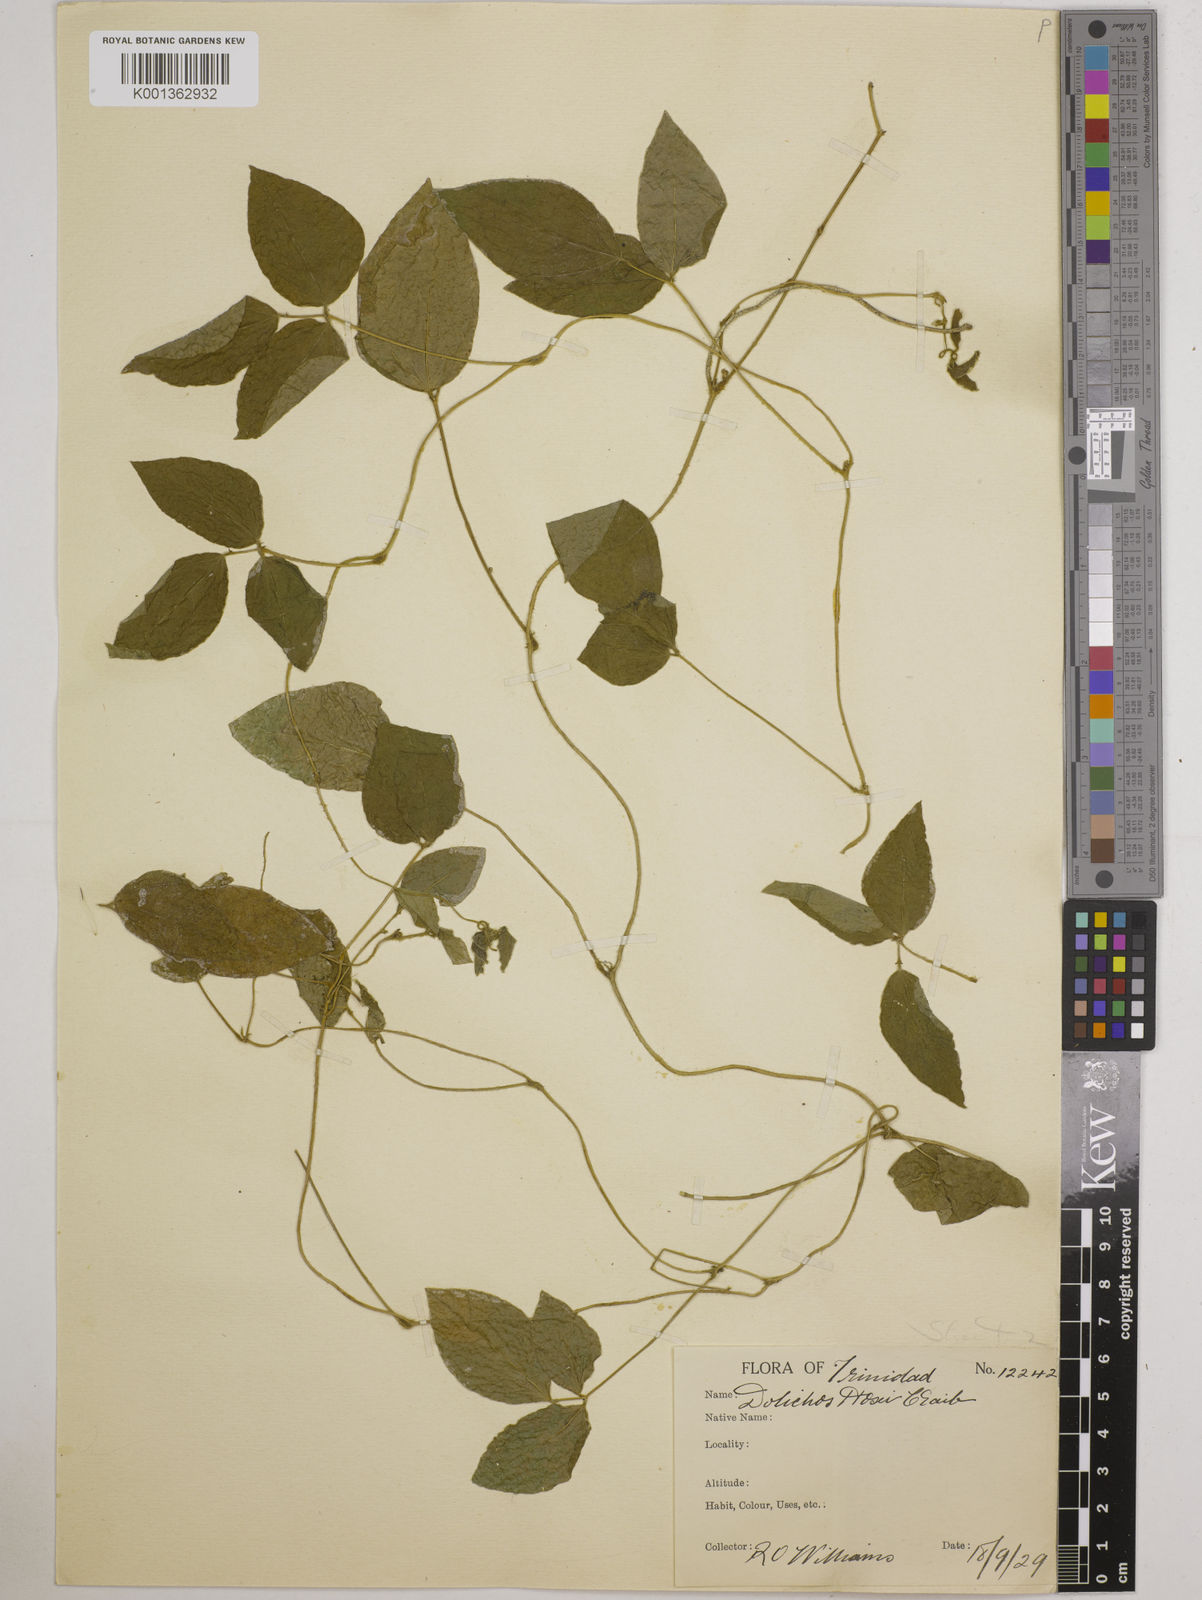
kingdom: Plantae
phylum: Tracheophyta
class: Magnoliopsida
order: Fabales
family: Fabaceae
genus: Vigna
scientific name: Vigna hosei
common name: Sarawak-bean
